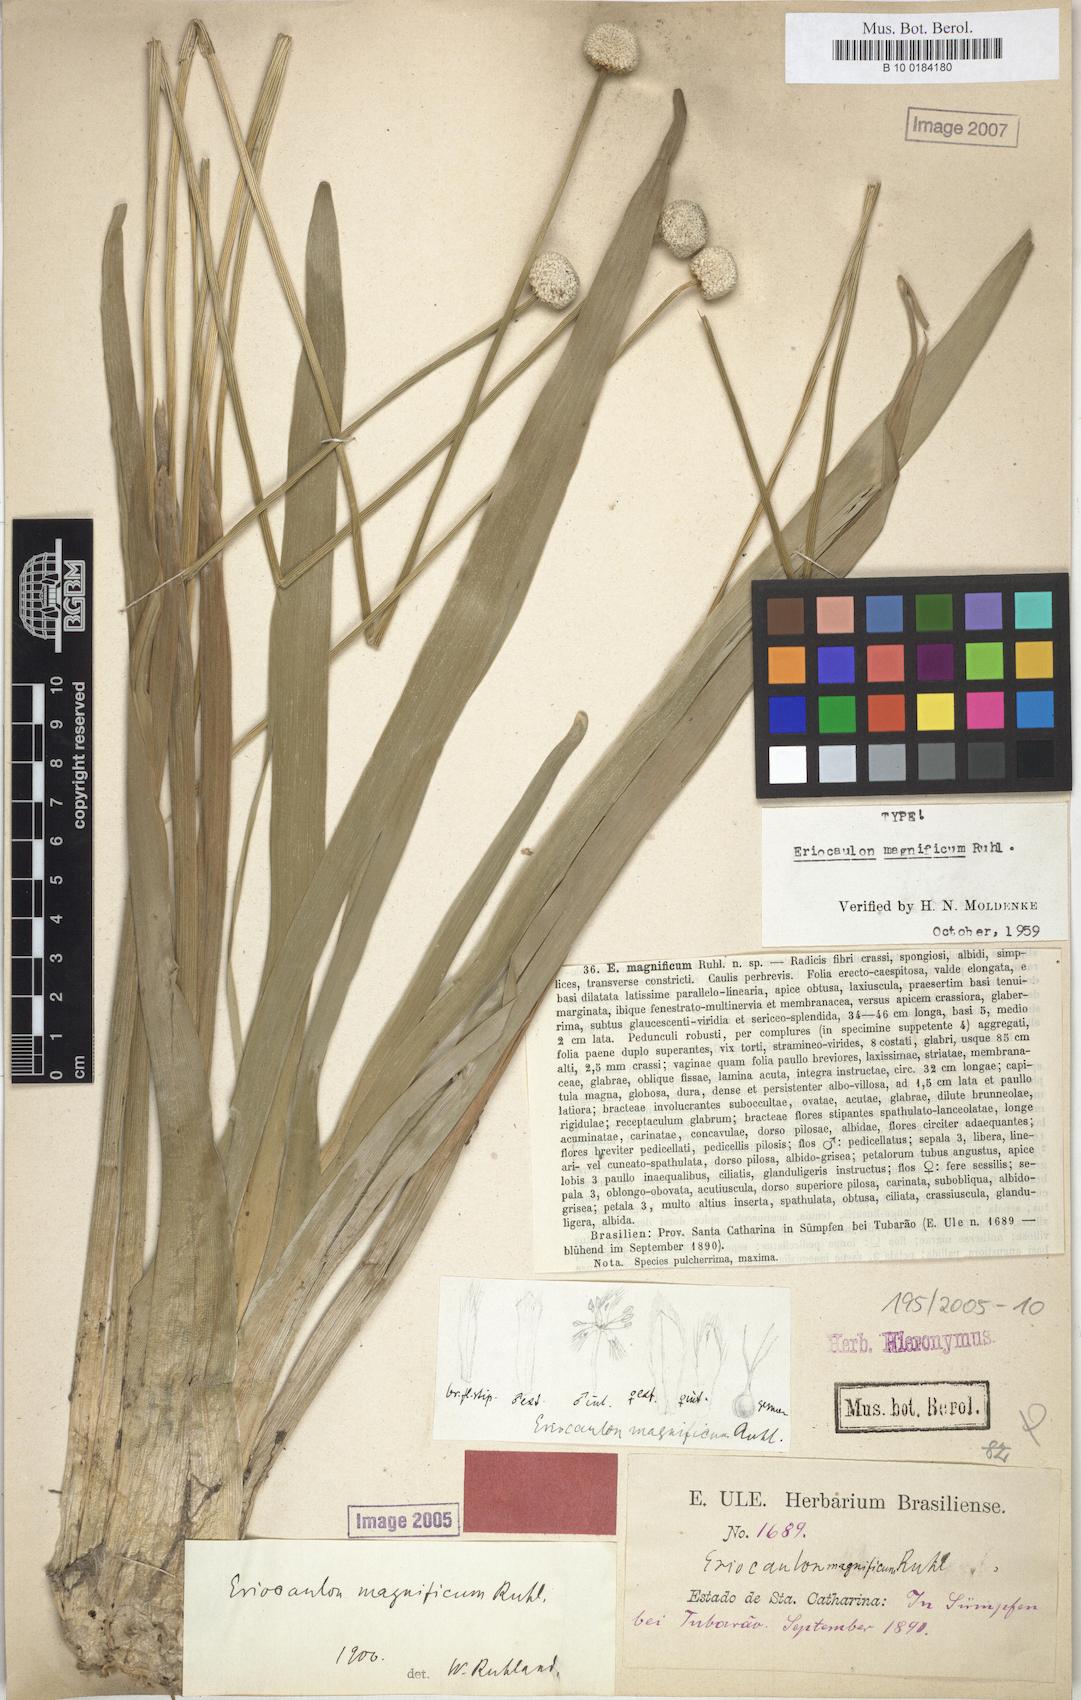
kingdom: Plantae
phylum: Tracheophyta
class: Liliopsida
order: Poales
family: Eriocaulaceae
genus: Eriocaulon
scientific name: Eriocaulon magnificum
